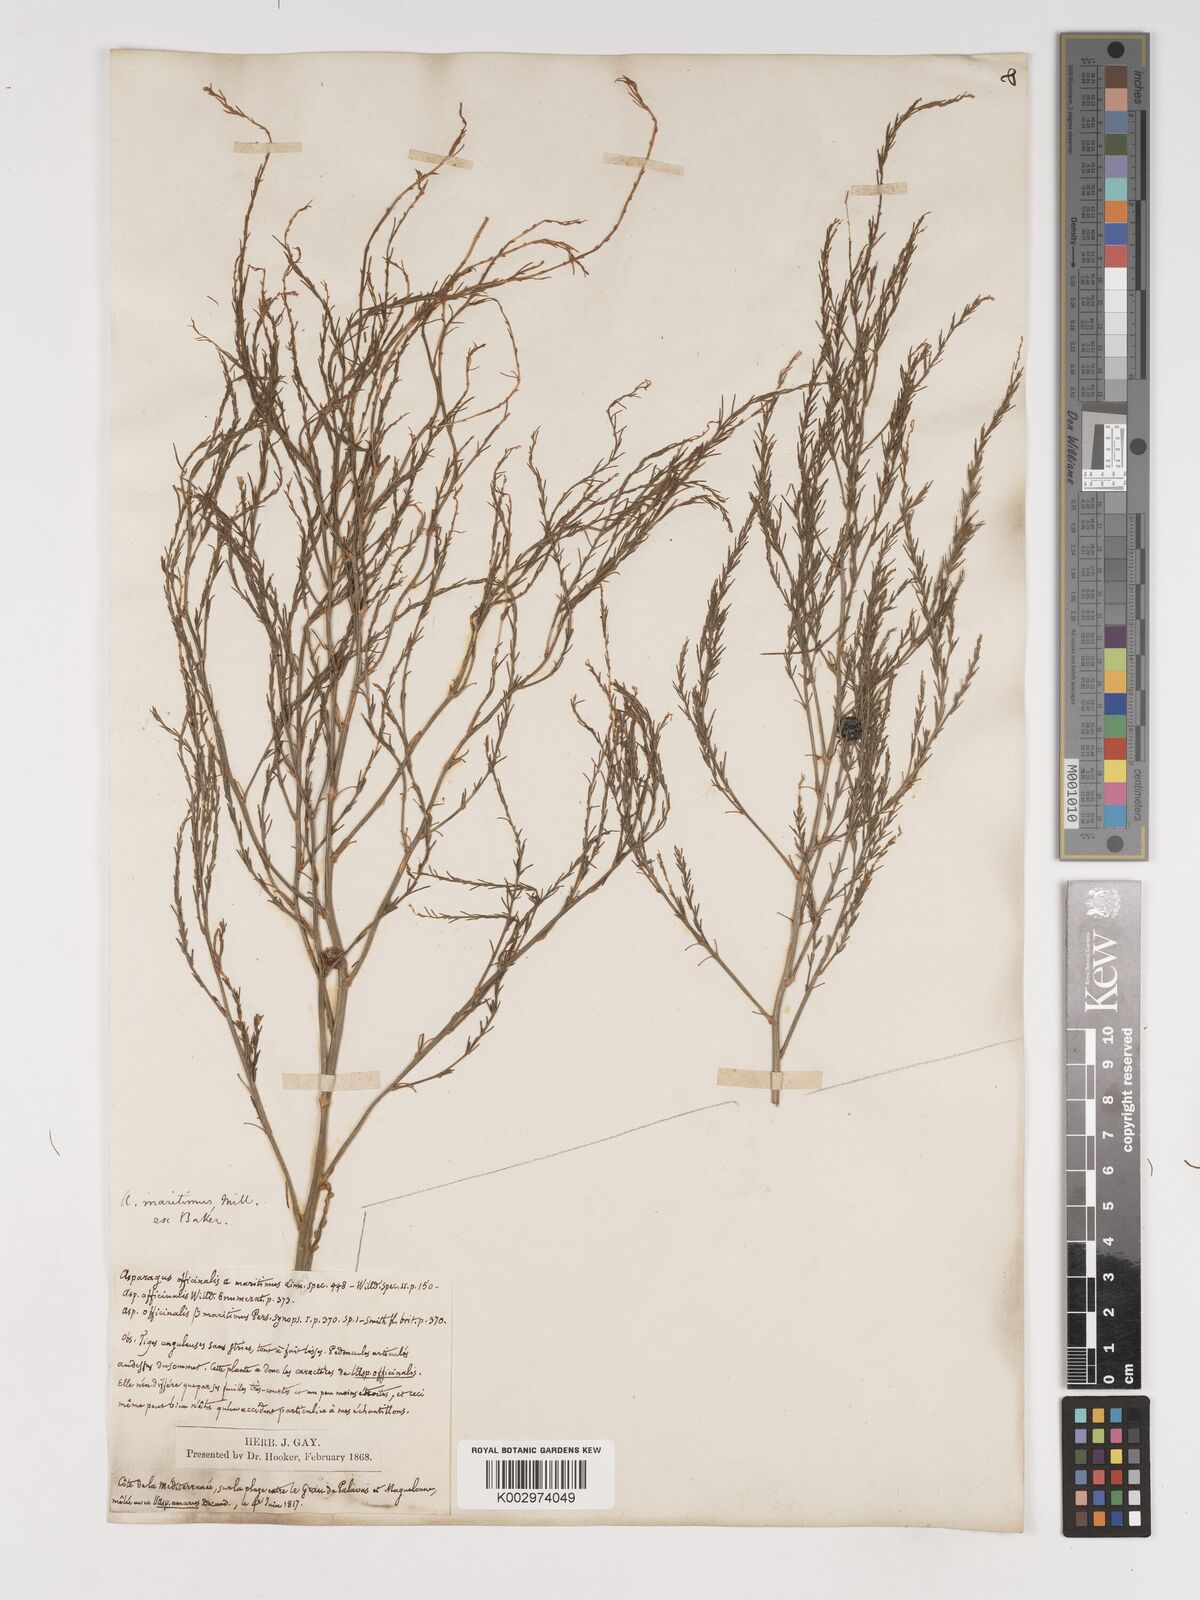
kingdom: Plantae
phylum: Tracheophyta
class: Liliopsida
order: Asparagales
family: Asparagaceae
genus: Asparagus
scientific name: Asparagus maritimus
